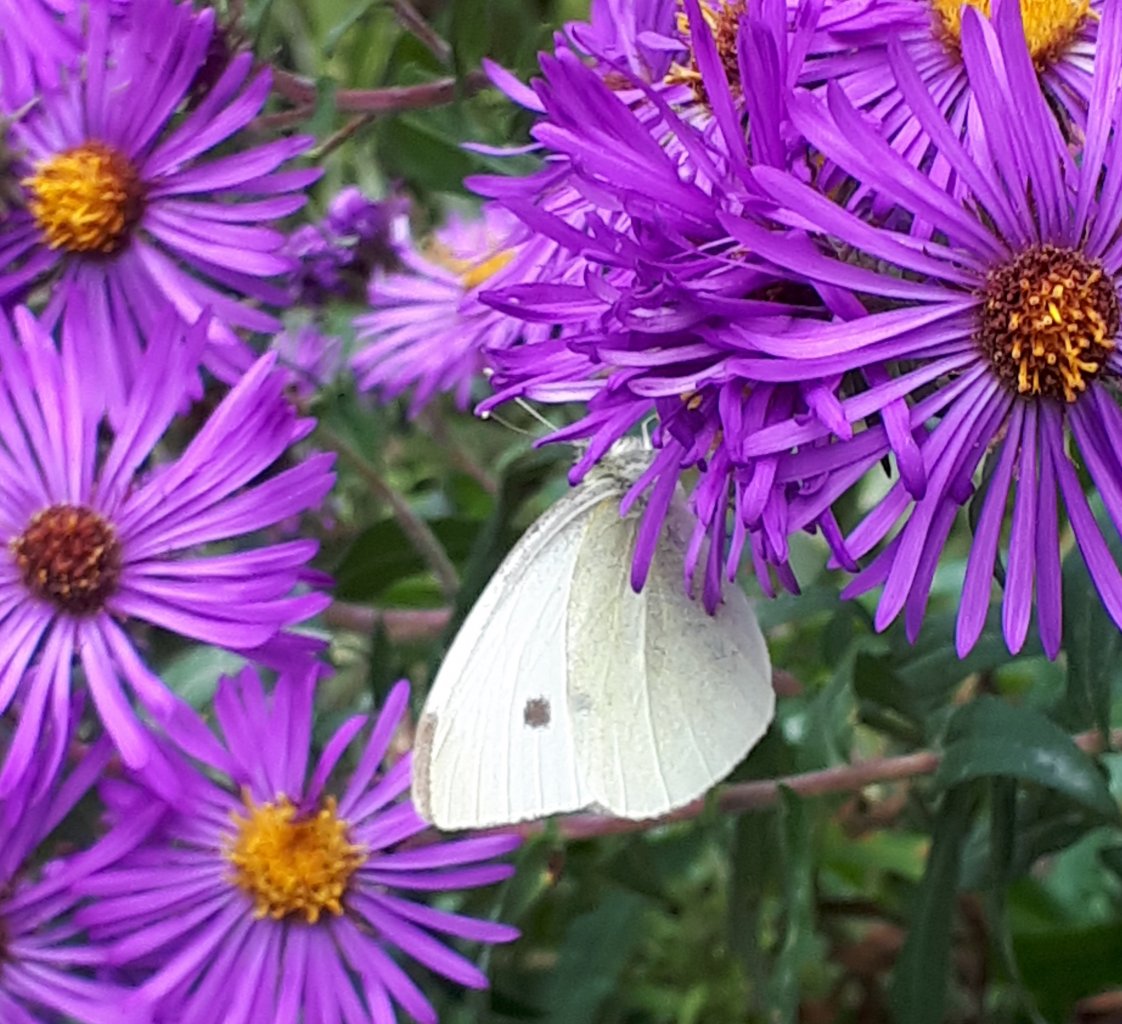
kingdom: Animalia
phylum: Arthropoda
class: Insecta
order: Lepidoptera
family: Pieridae
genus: Pieris
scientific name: Pieris rapae
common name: Cabbage White
